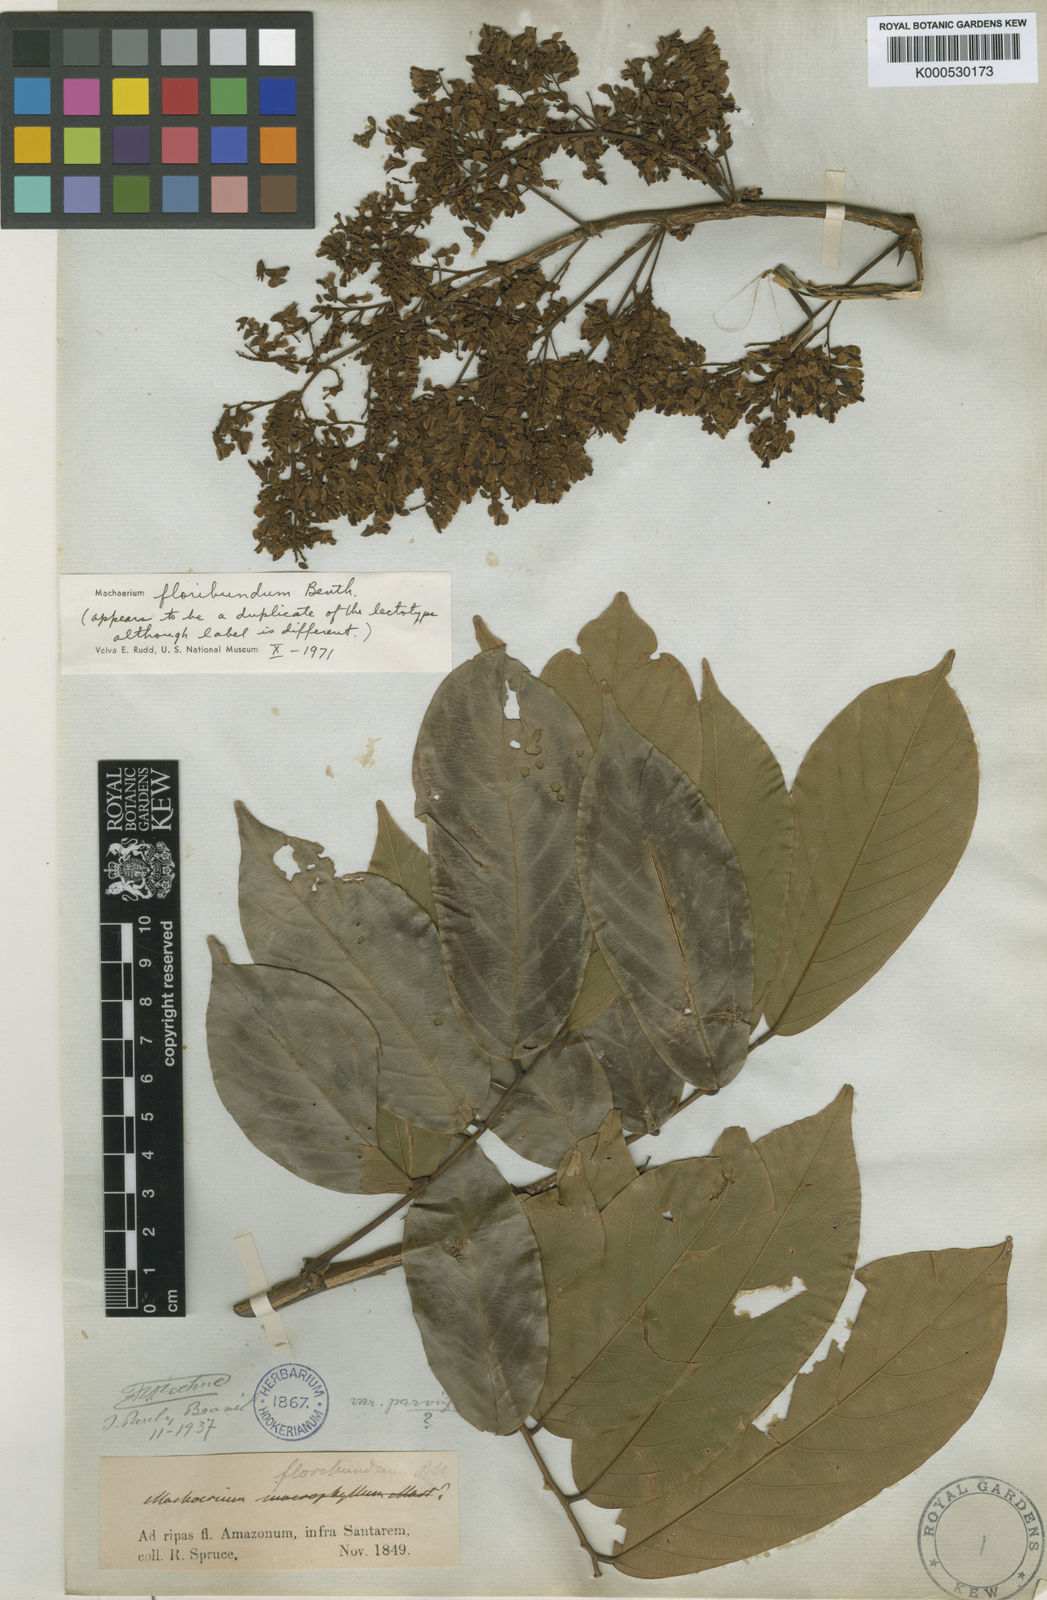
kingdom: Plantae
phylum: Tracheophyta
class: Magnoliopsida
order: Fabales
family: Fabaceae
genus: Machaerium
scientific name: Machaerium floribundum
